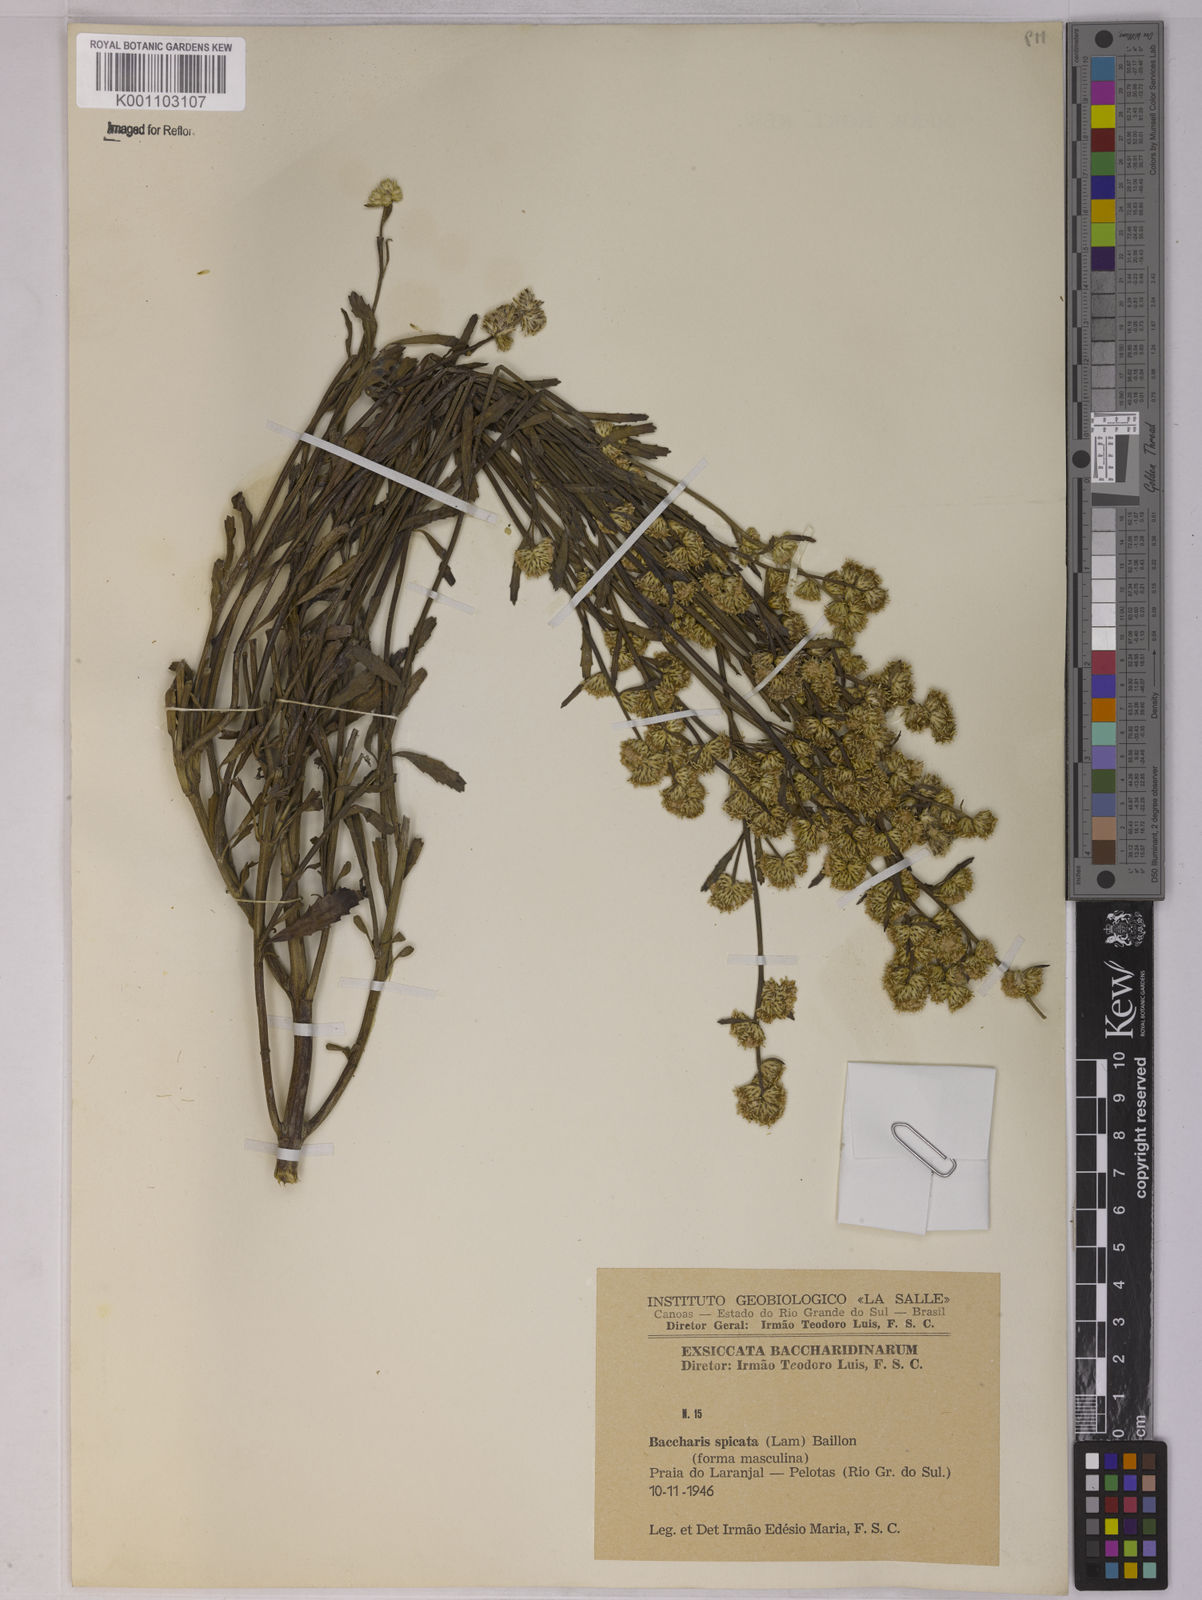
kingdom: Plantae
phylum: Tracheophyta
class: Magnoliopsida
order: Asterales
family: Asteraceae
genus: Baccharis
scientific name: Baccharis spicata
